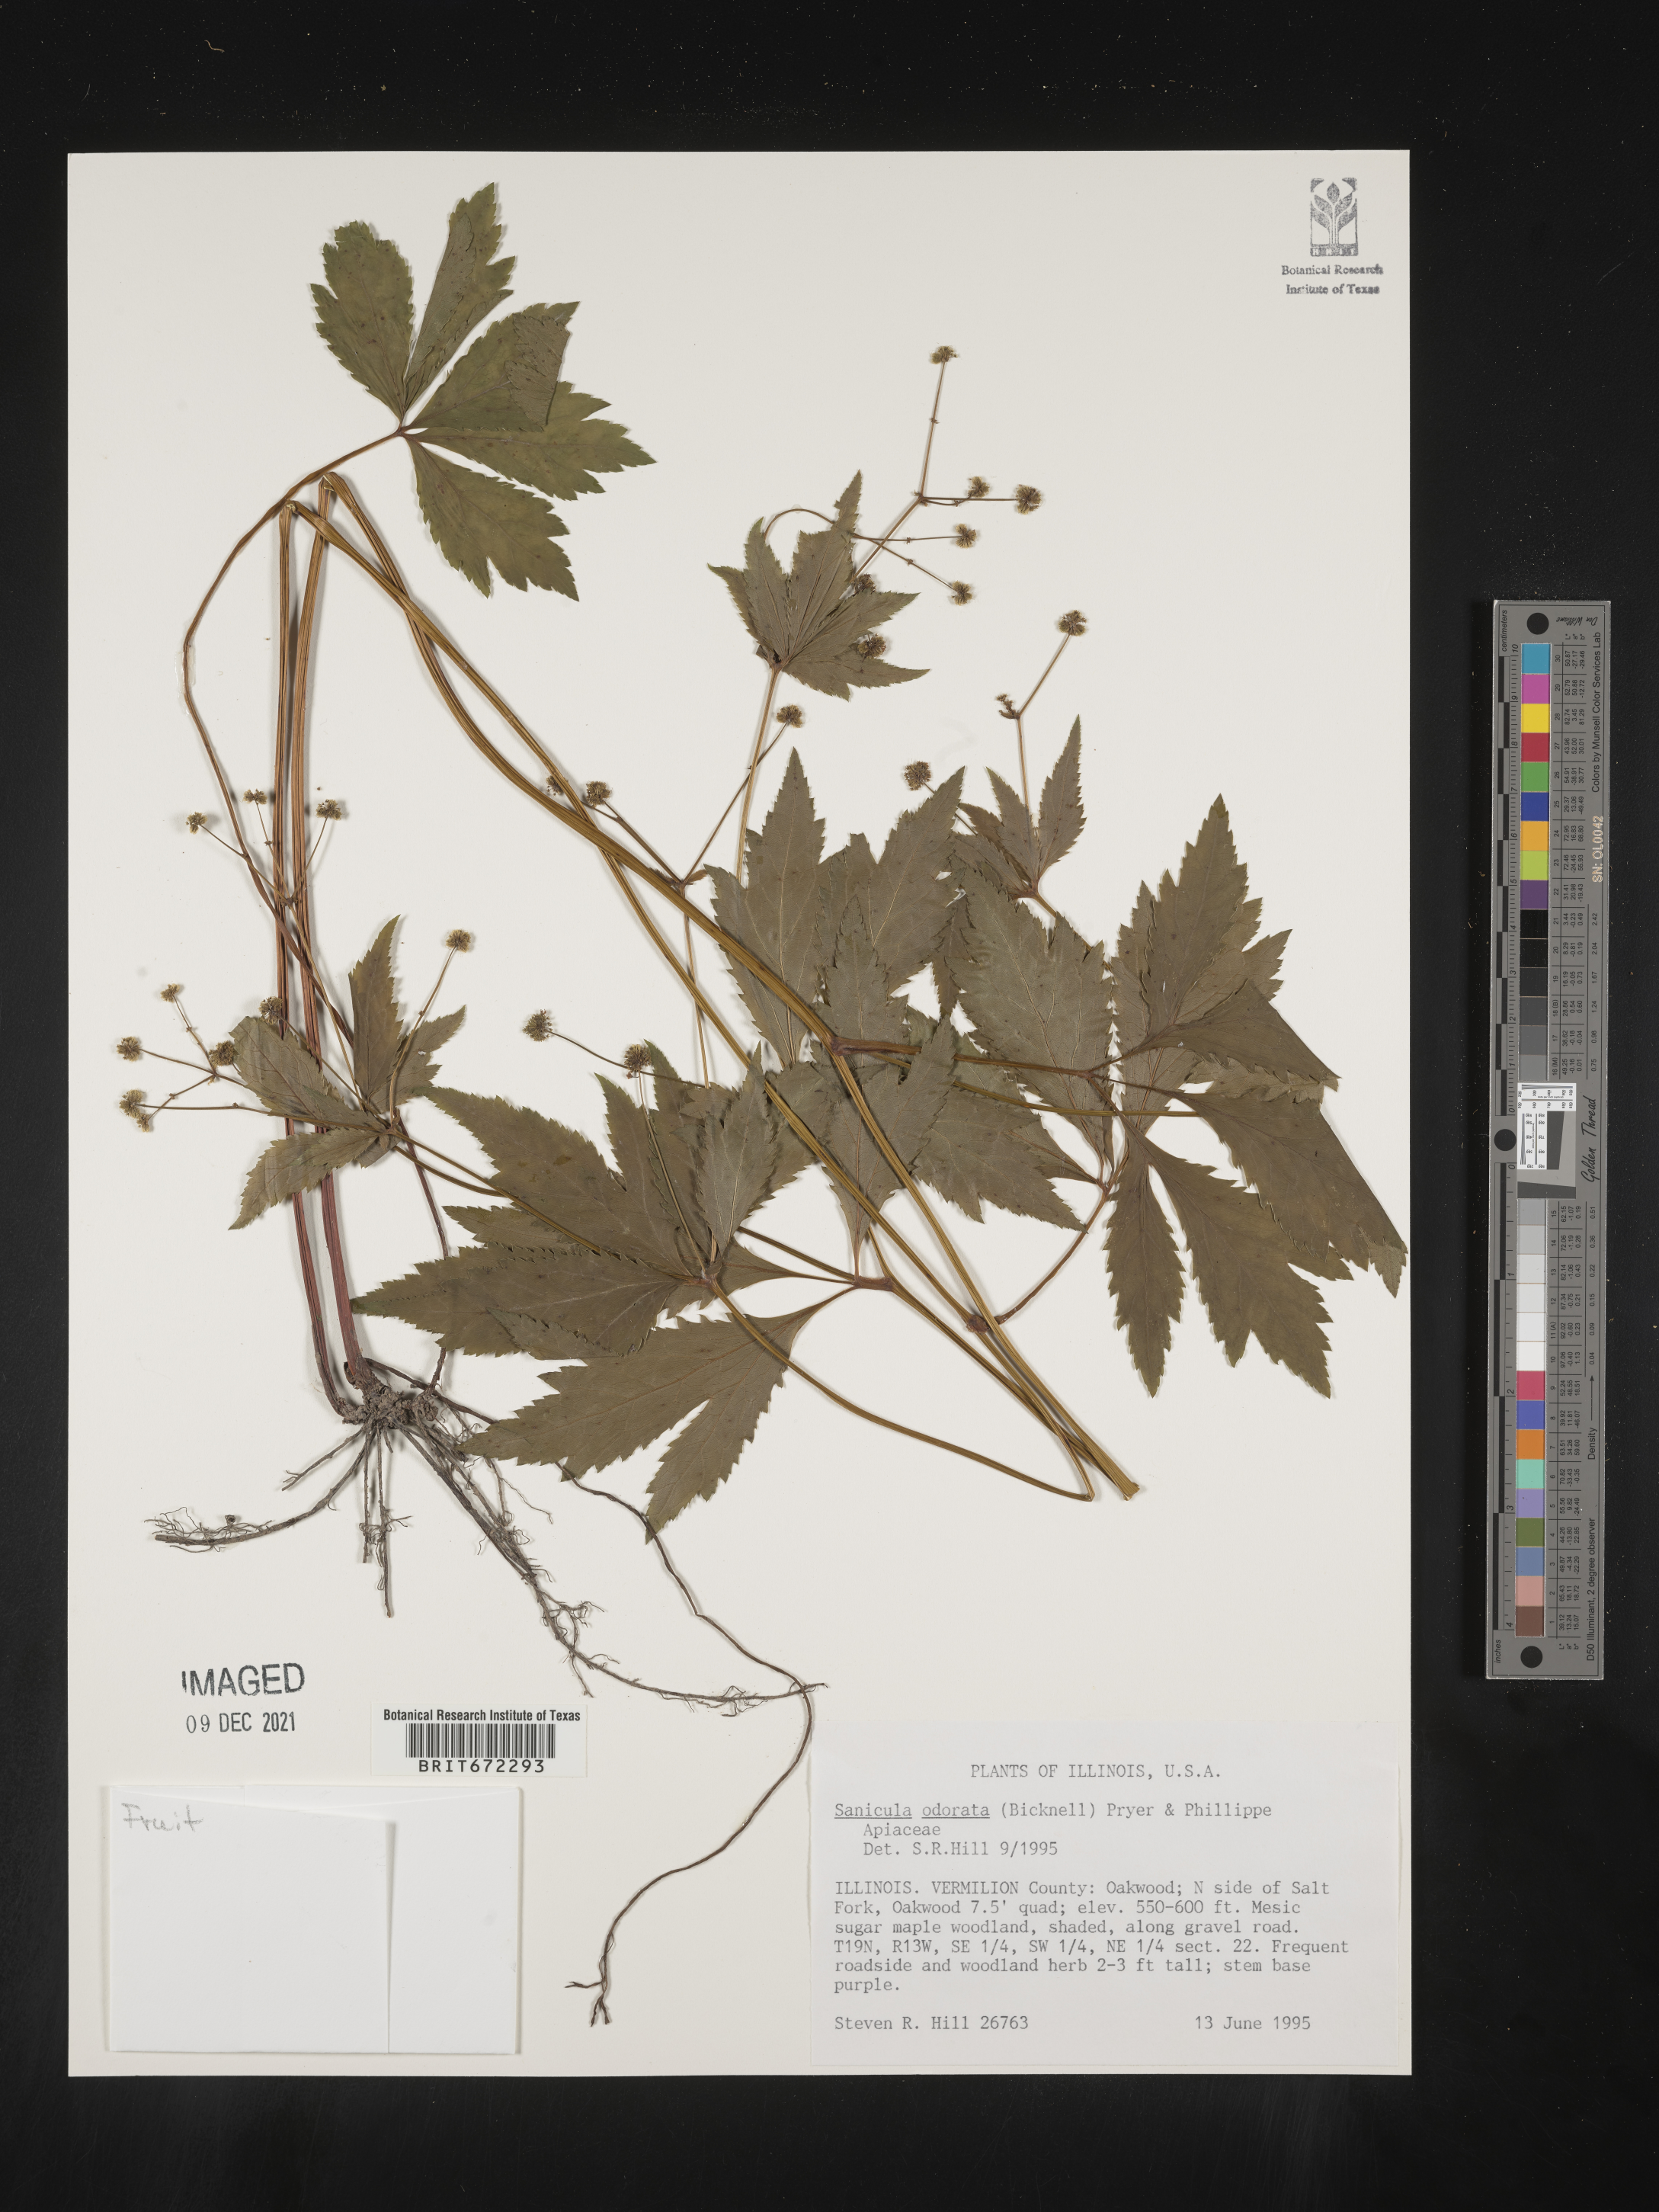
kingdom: Plantae
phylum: Tracheophyta
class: Magnoliopsida
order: Apiales
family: Apiaceae
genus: Sanicula
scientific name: Sanicula
